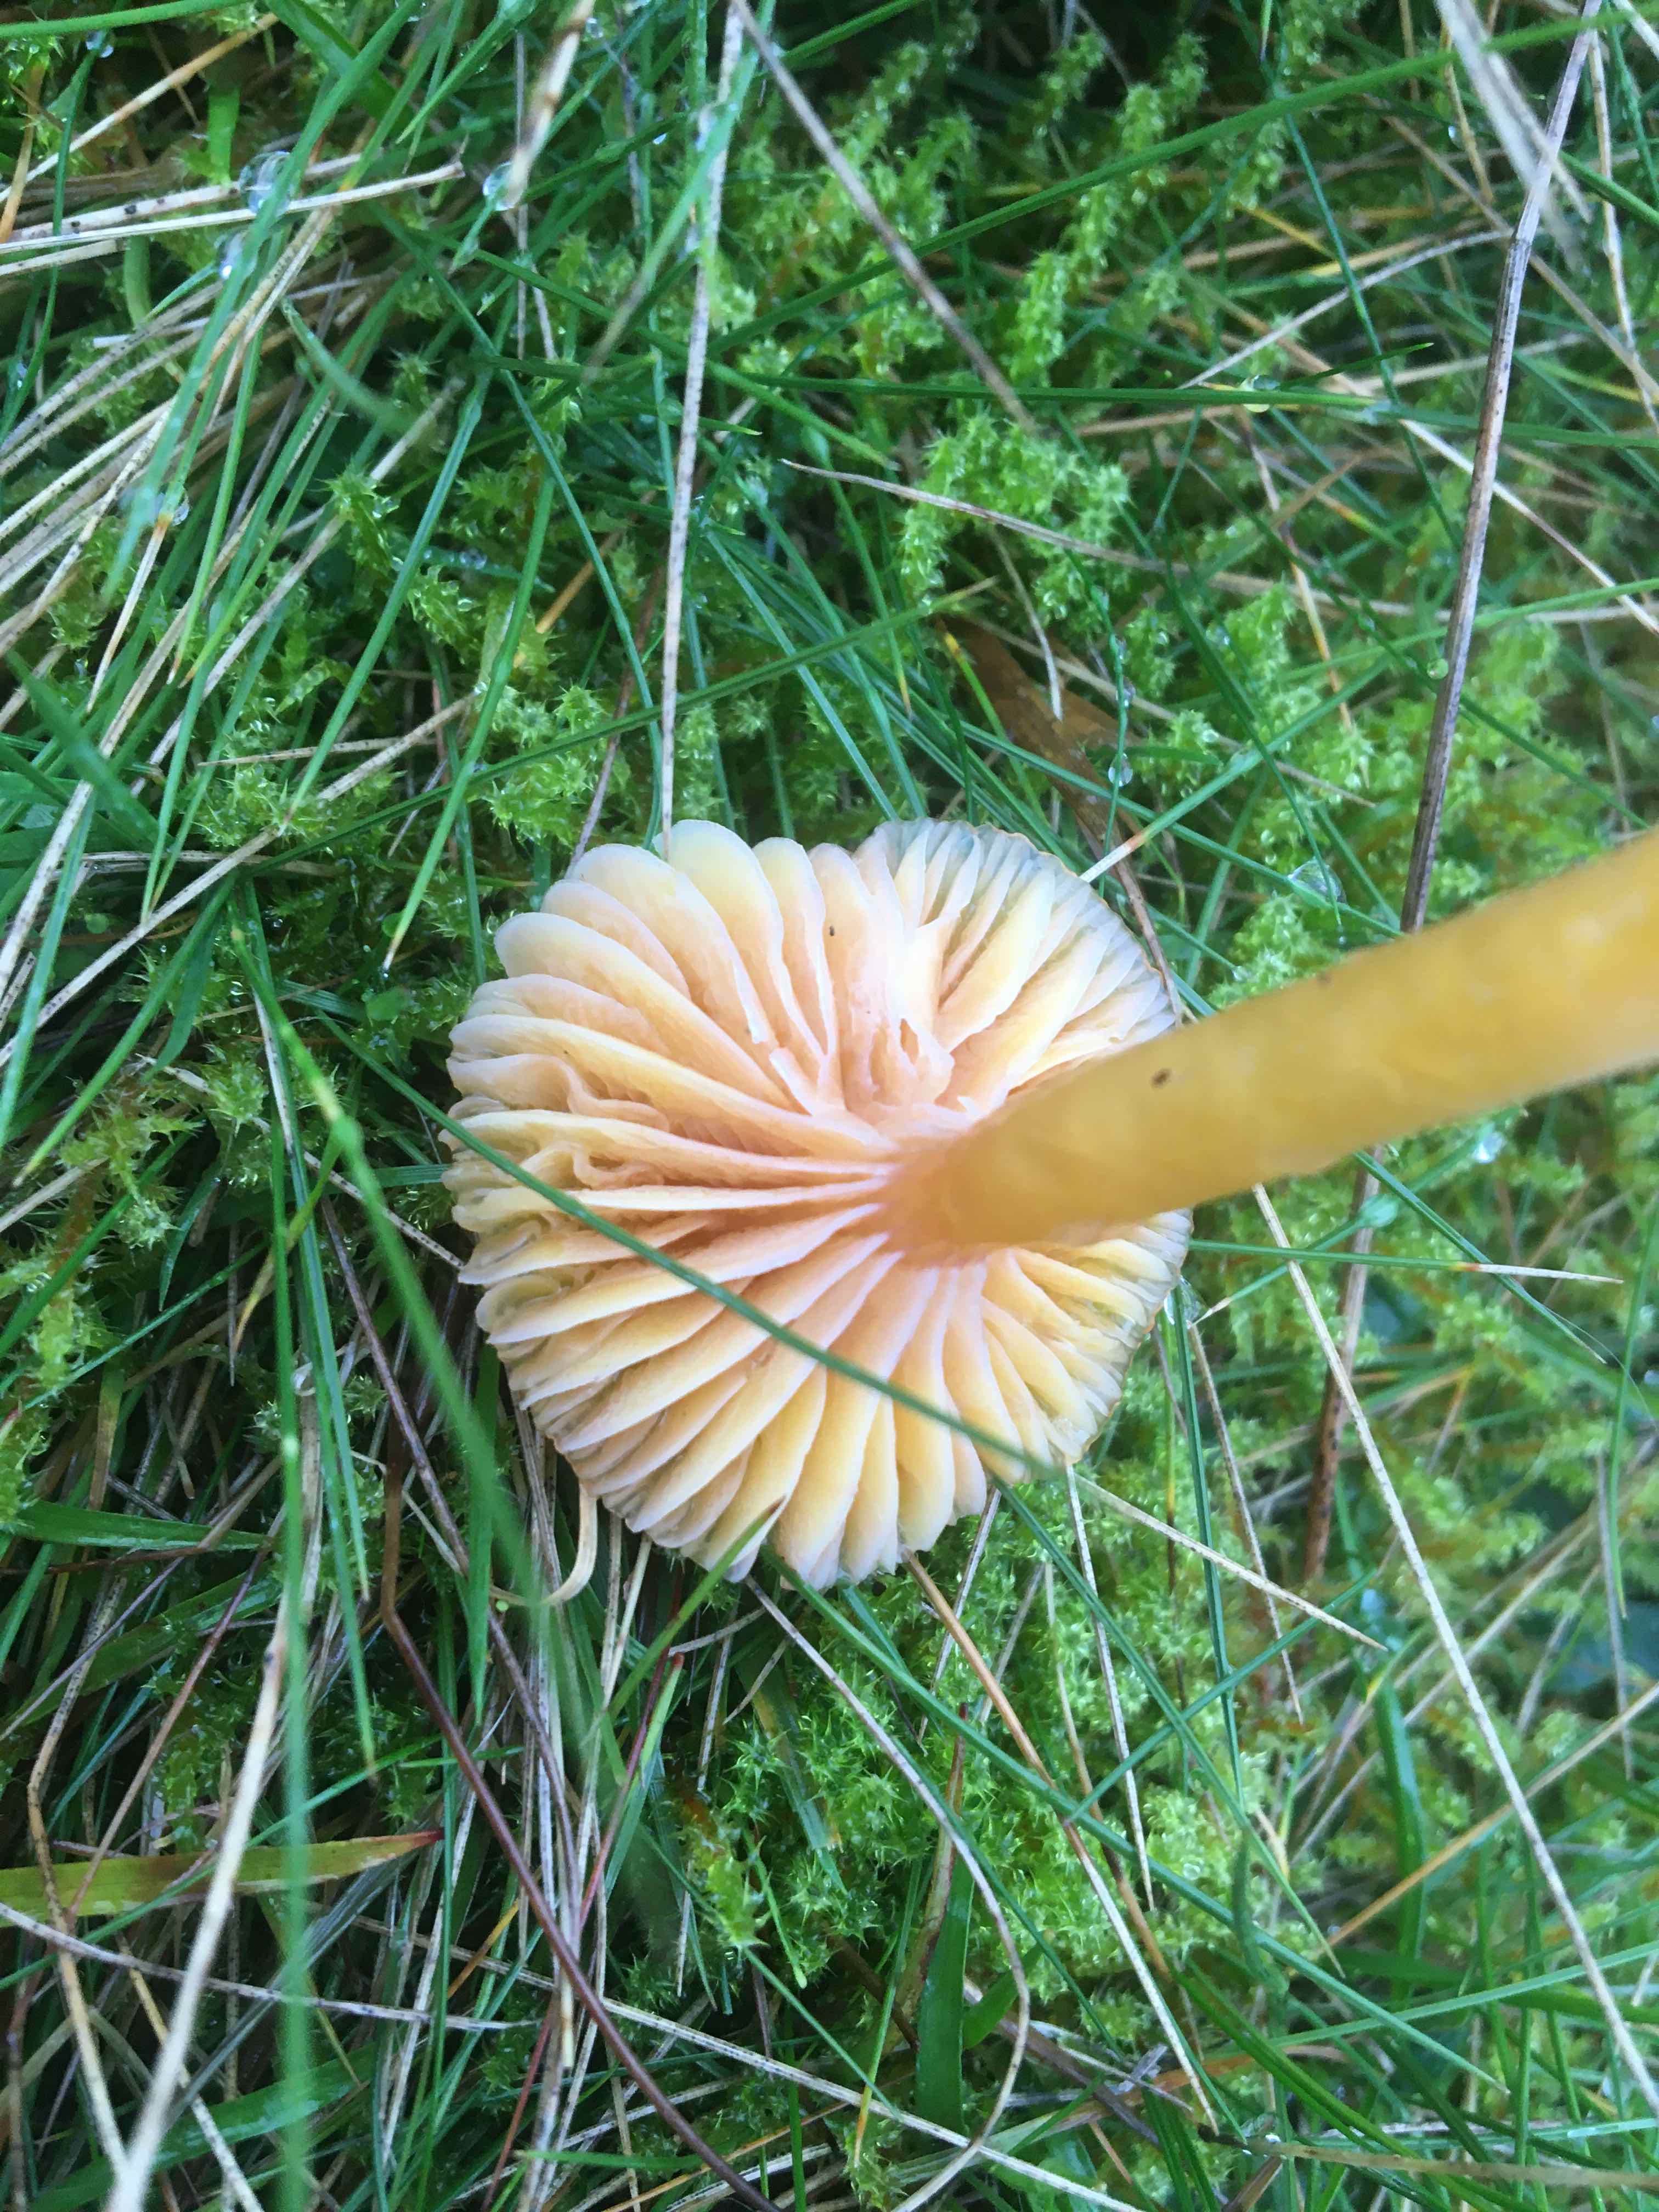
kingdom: Fungi
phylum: Basidiomycota
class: Agaricomycetes
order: Agaricales
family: Hygrophoraceae
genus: Gliophorus
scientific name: Gliophorus laetus
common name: brusk-vokshat
